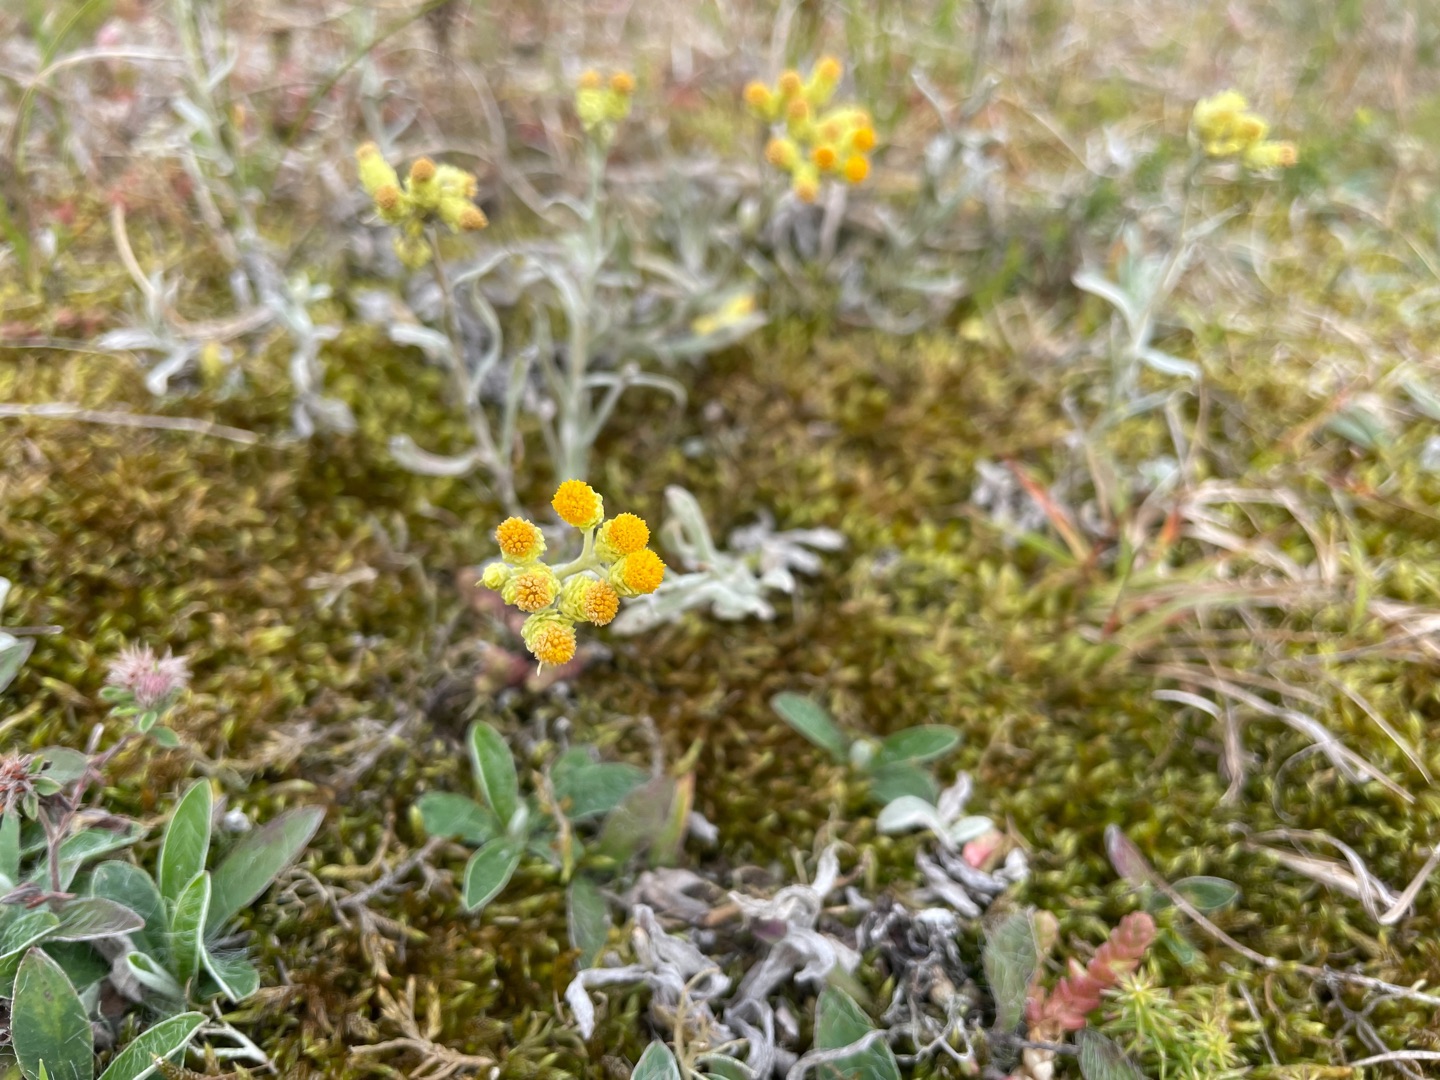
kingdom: Plantae
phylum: Tracheophyta
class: Magnoliopsida
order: Asterales
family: Asteraceae
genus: Helichrysum
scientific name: Helichrysum arenarium
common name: Gul evighedsblomst
